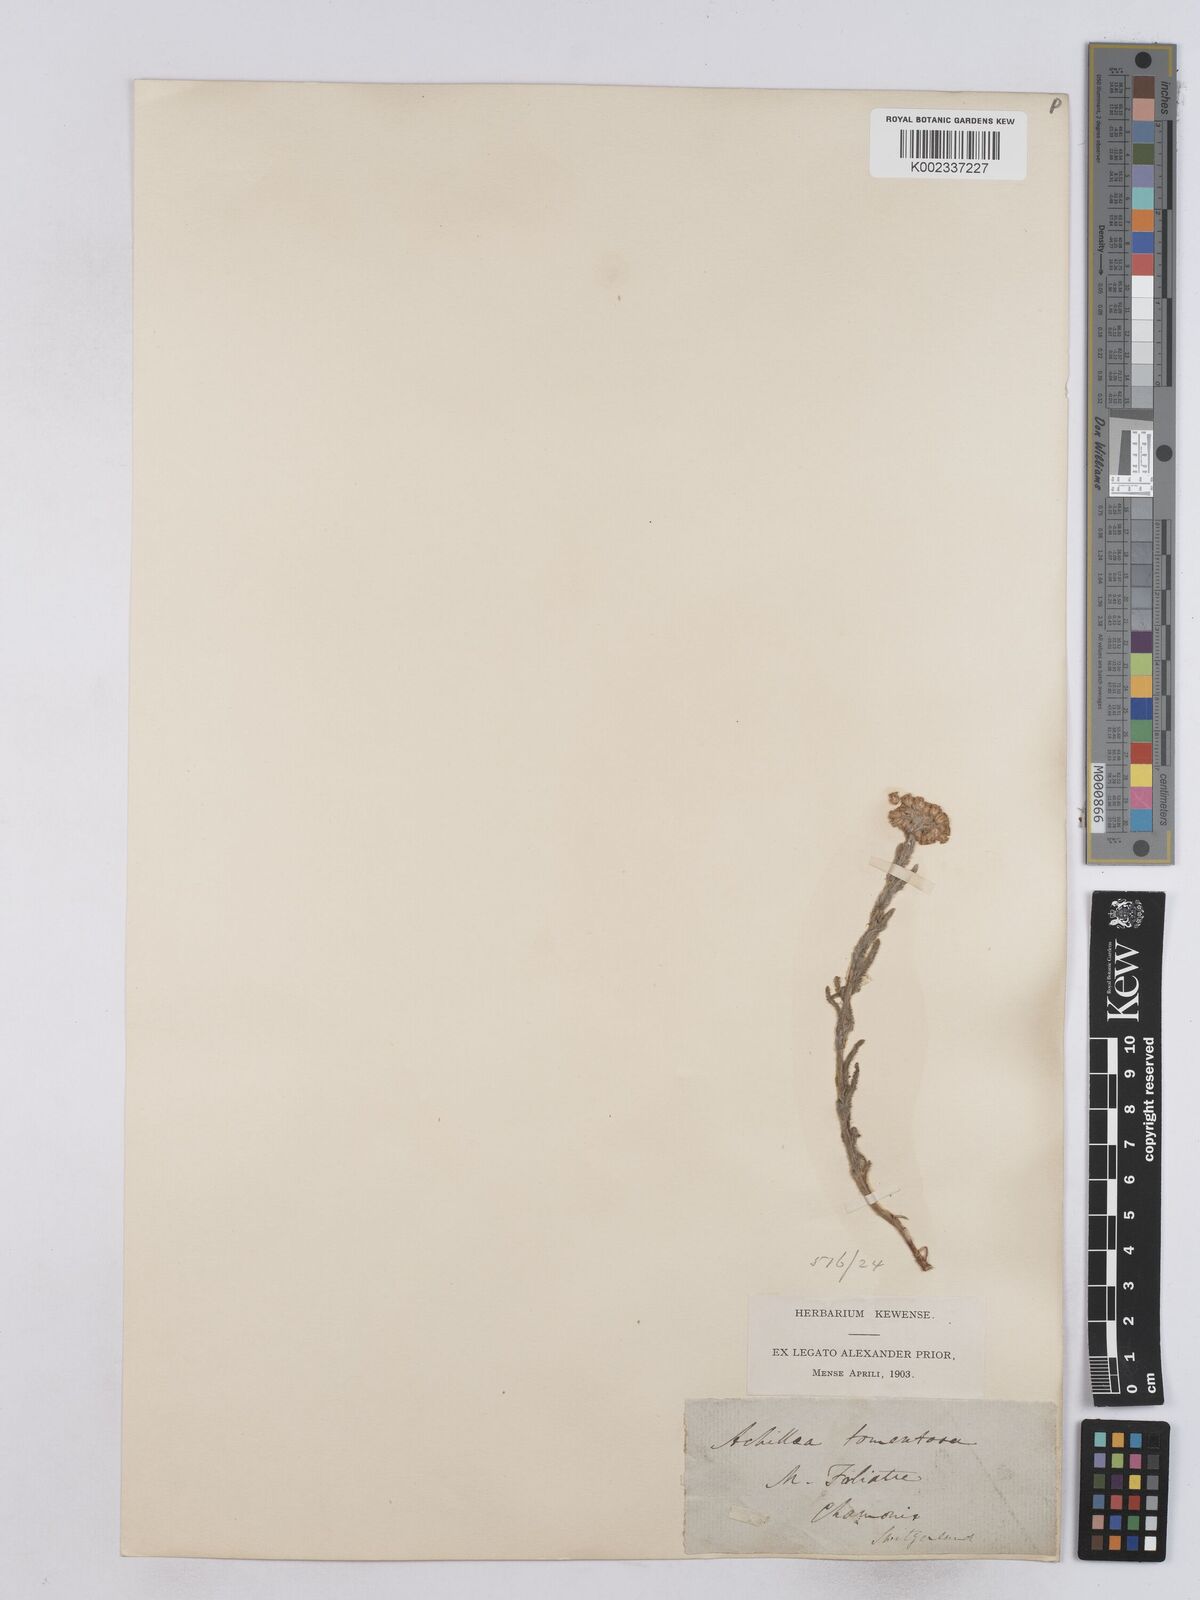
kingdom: Plantae
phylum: Tracheophyta
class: Magnoliopsida
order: Asterales
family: Asteraceae
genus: Achillea
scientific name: Achillea tomentosa
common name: Yellow milfoil
